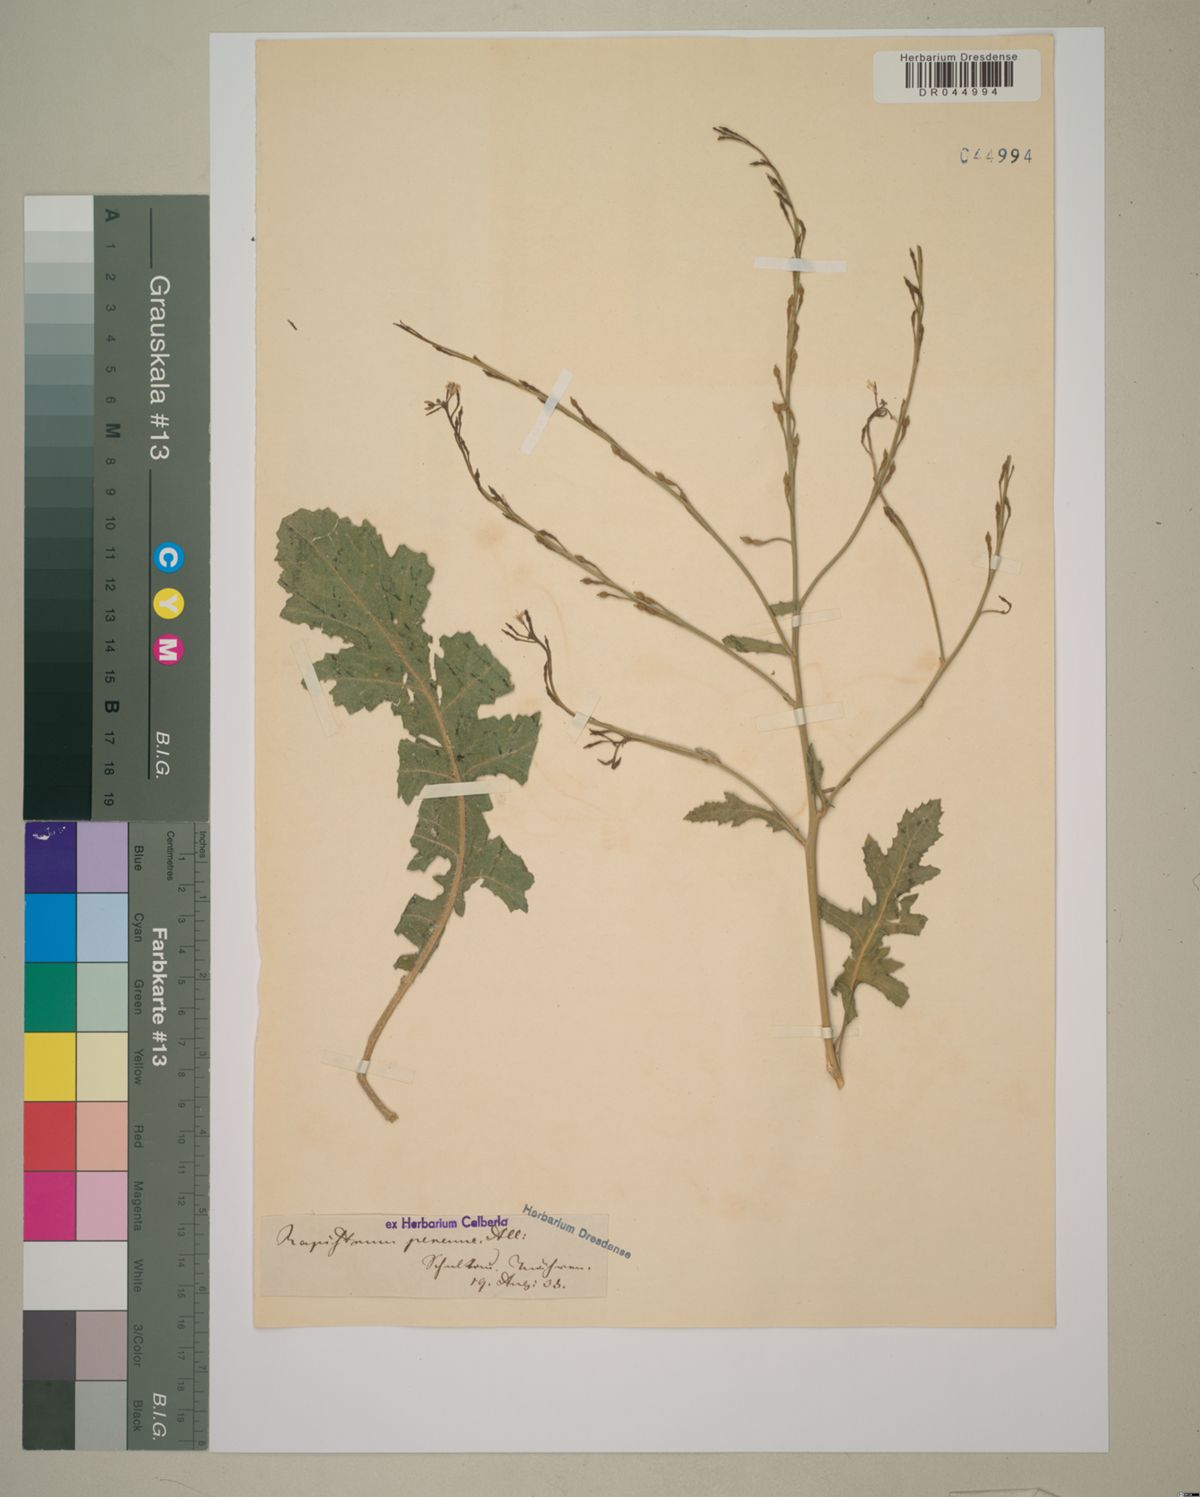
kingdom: Plantae
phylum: Tracheophyta
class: Magnoliopsida
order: Brassicales
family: Brassicaceae
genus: Rapistrum
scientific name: Rapistrum perenne
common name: Steppe cabbage
